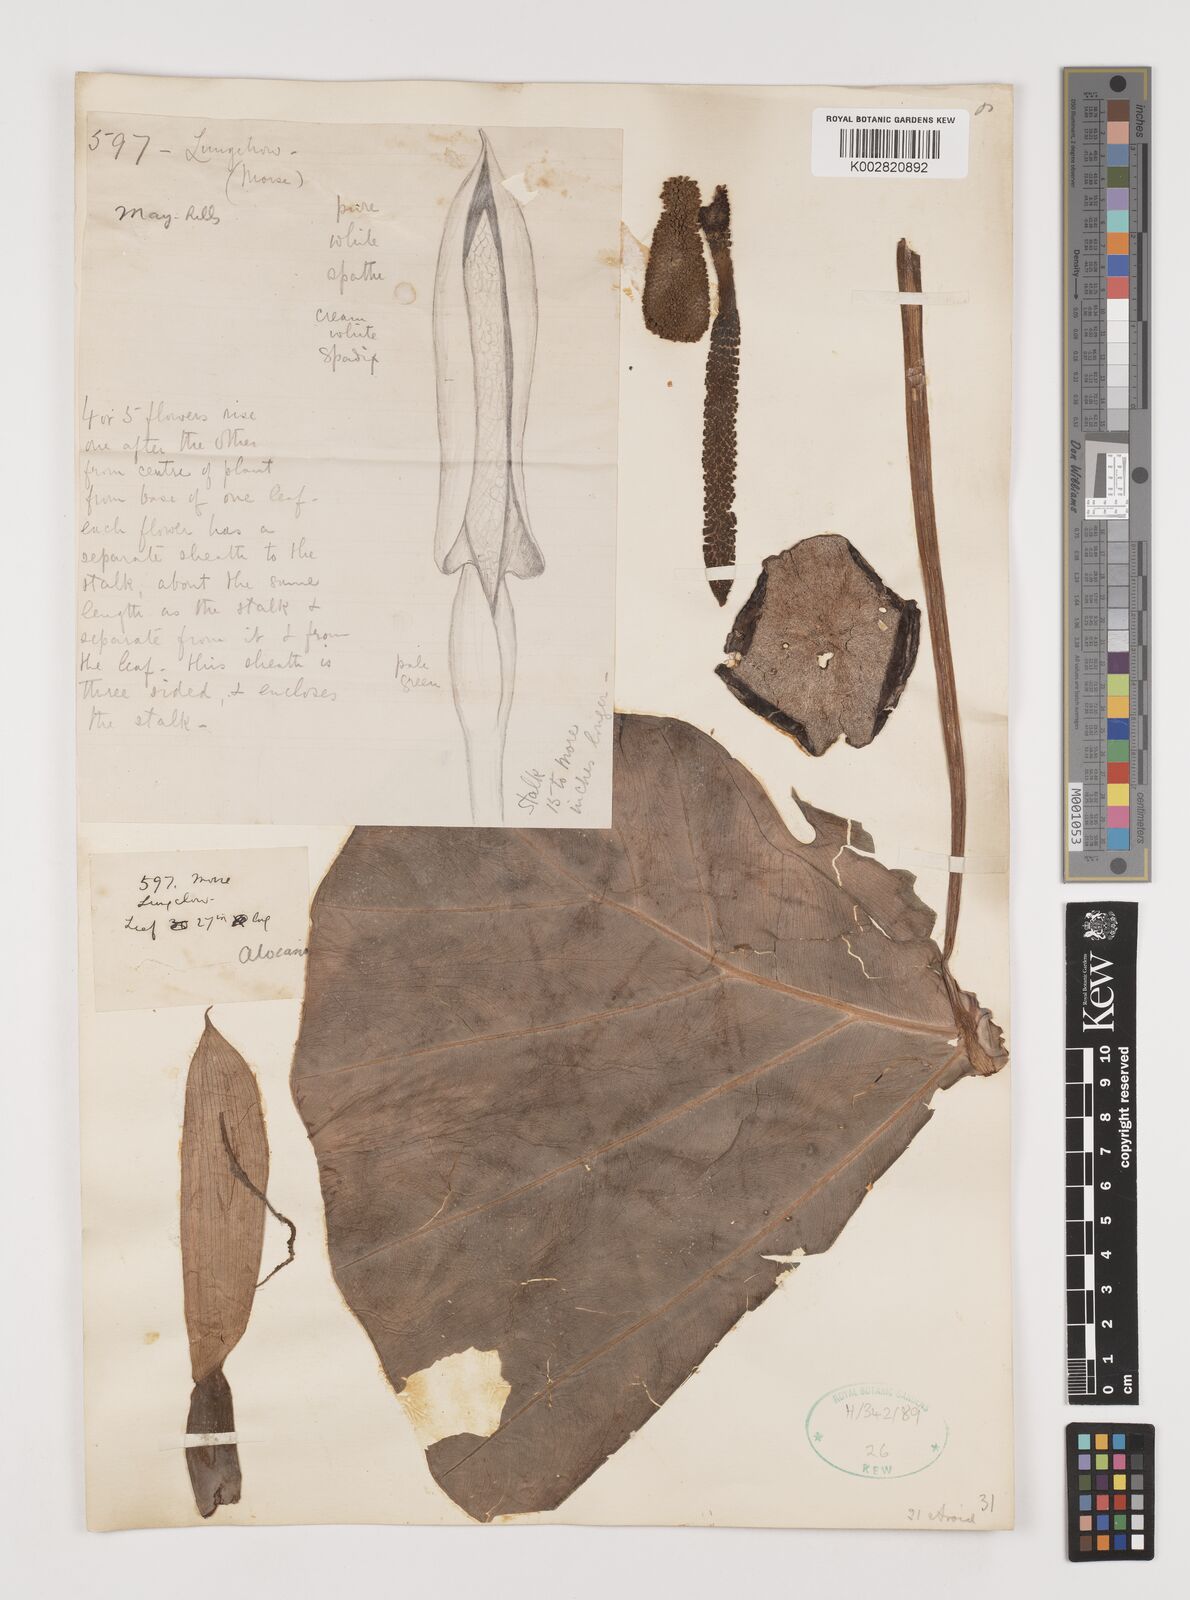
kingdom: Plantae
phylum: Tracheophyta
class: Liliopsida
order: Alismatales
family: Araceae
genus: Alocasia
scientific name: Alocasia
